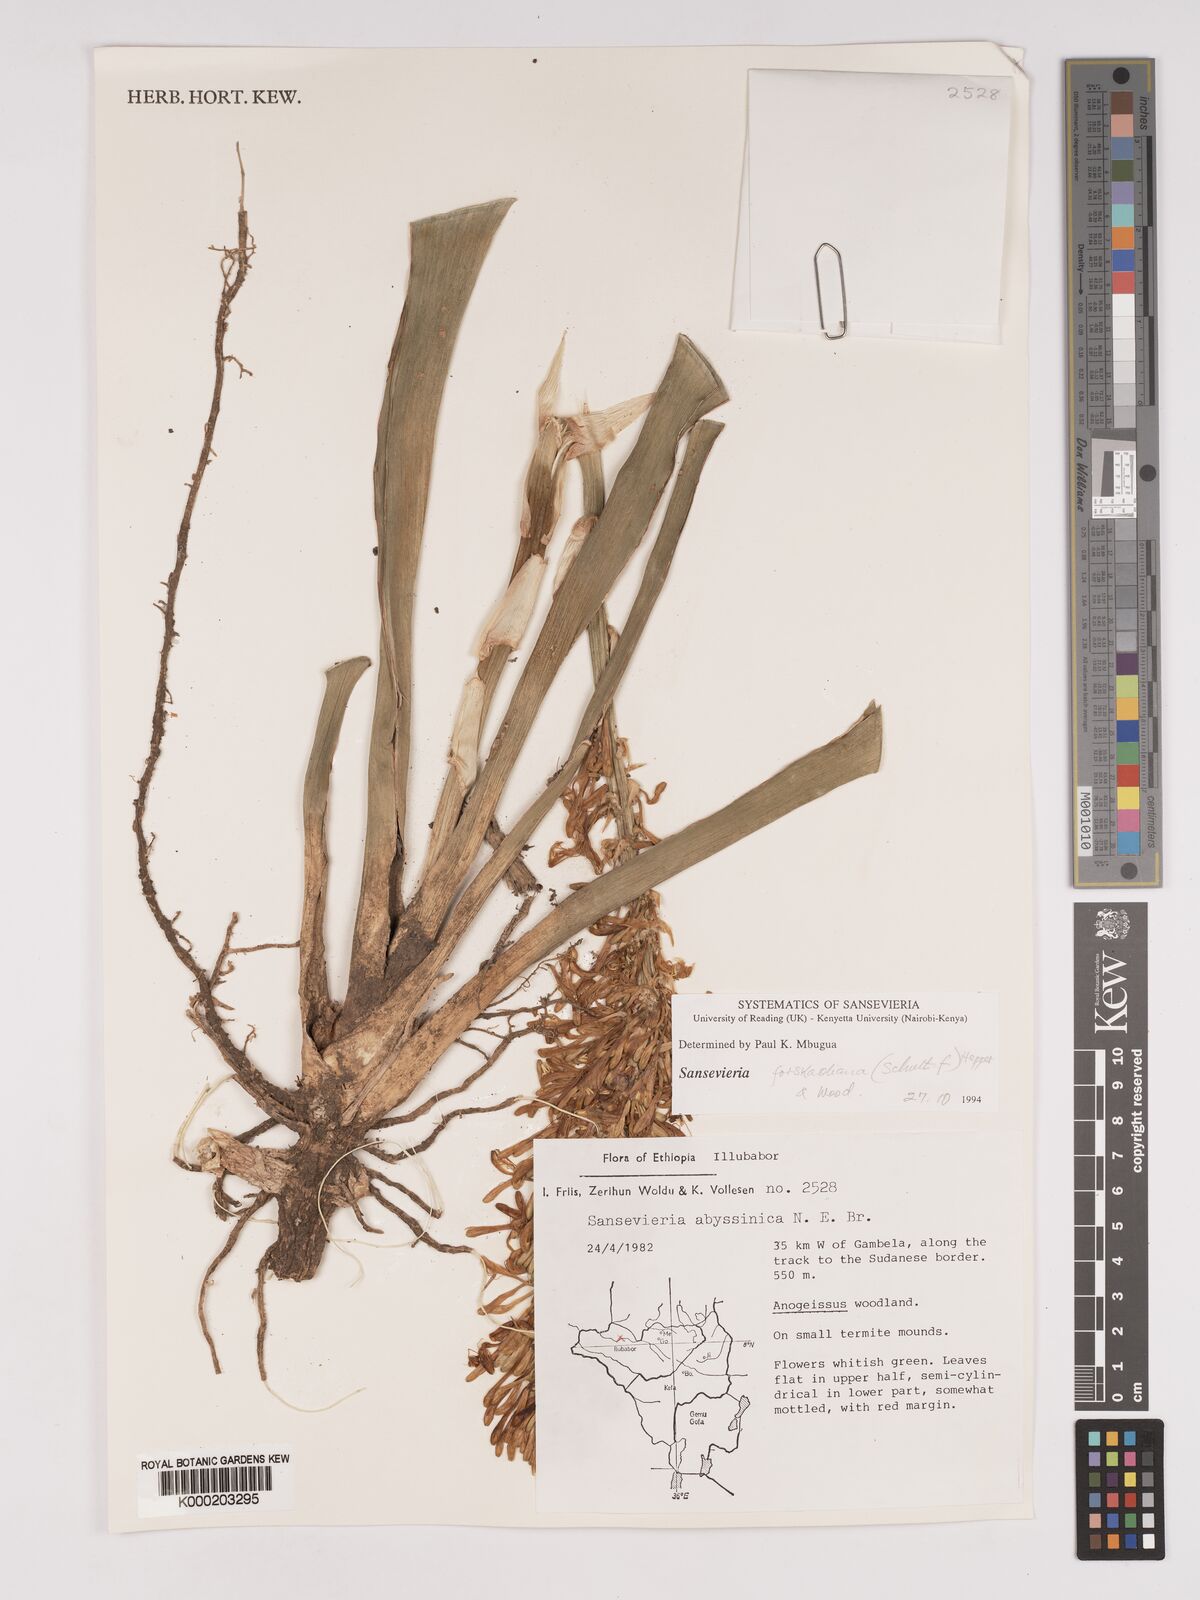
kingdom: Plantae
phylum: Tracheophyta
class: Liliopsida
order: Asparagales
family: Asparagaceae
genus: Dracaena
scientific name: Dracaena forskaliana
